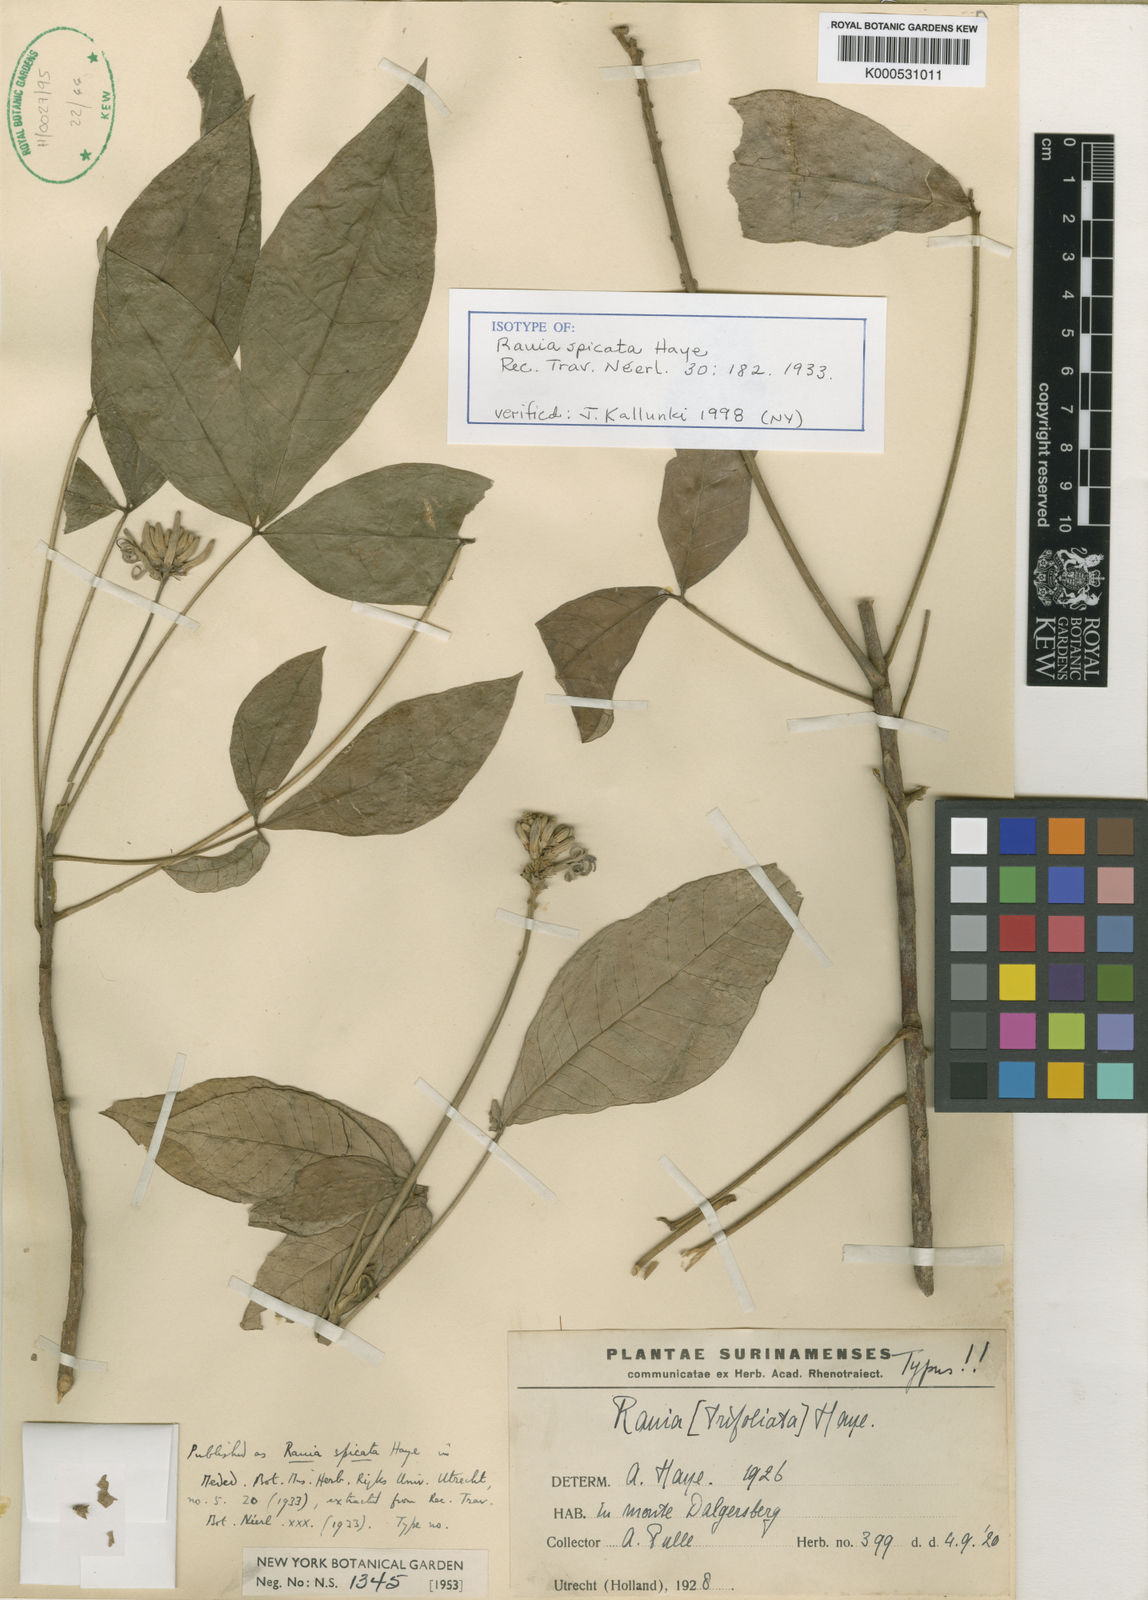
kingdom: Plantae
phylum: Tracheophyta
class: Magnoliopsida
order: Sapindales
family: Rutaceae
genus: Rauia
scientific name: Rauia spicata
